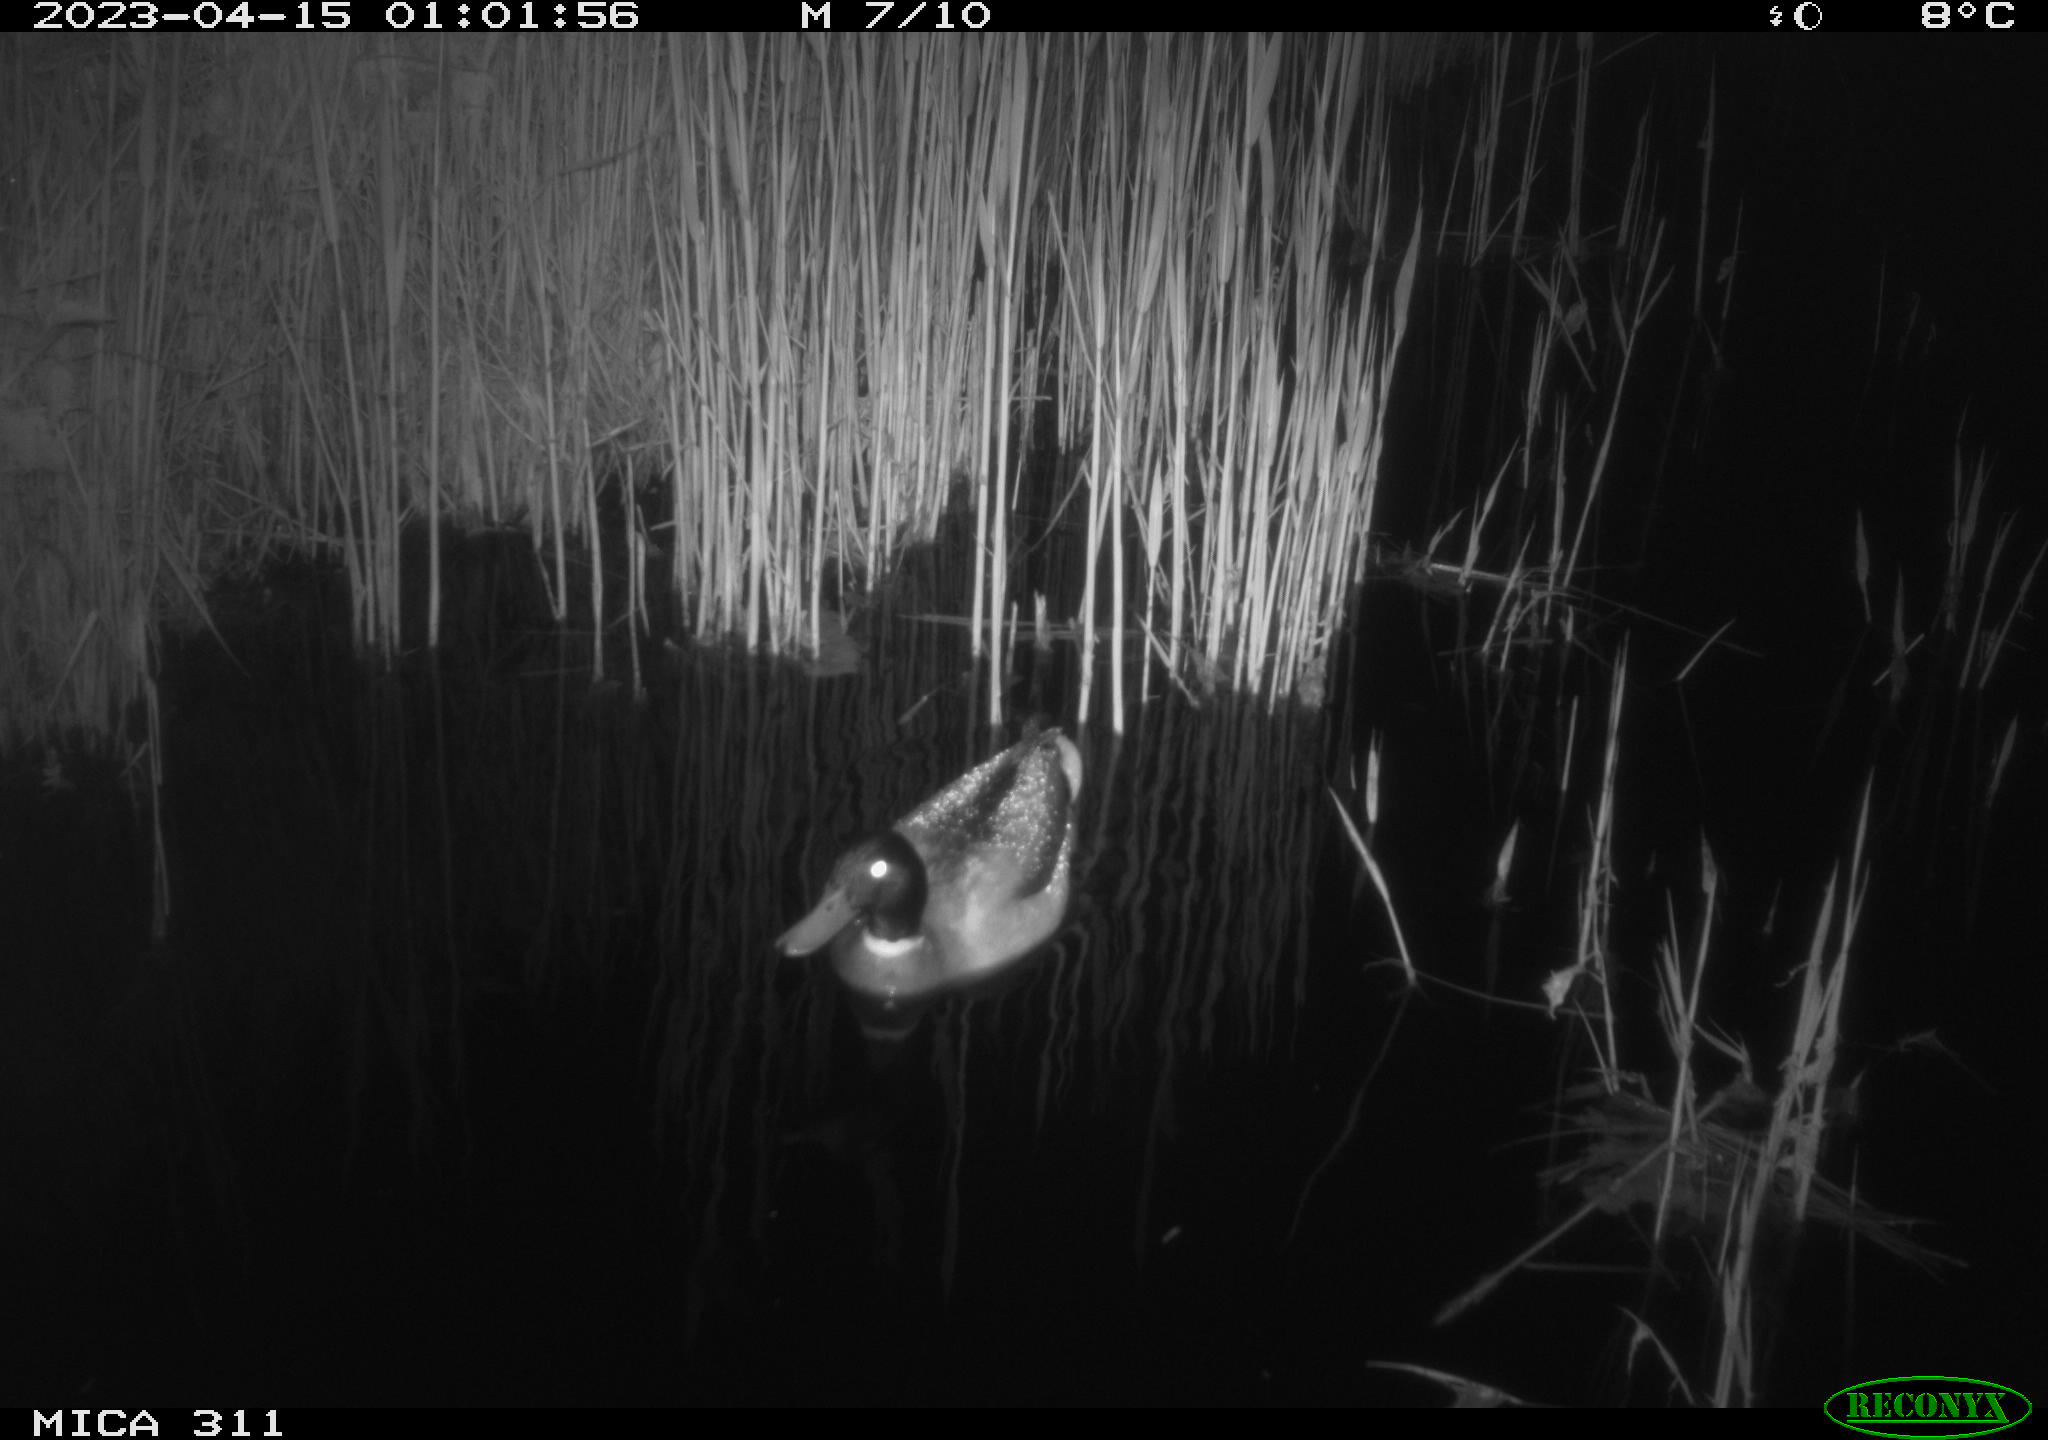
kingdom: Animalia
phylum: Chordata
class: Aves
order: Anseriformes
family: Anatidae
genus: Anas
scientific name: Anas
